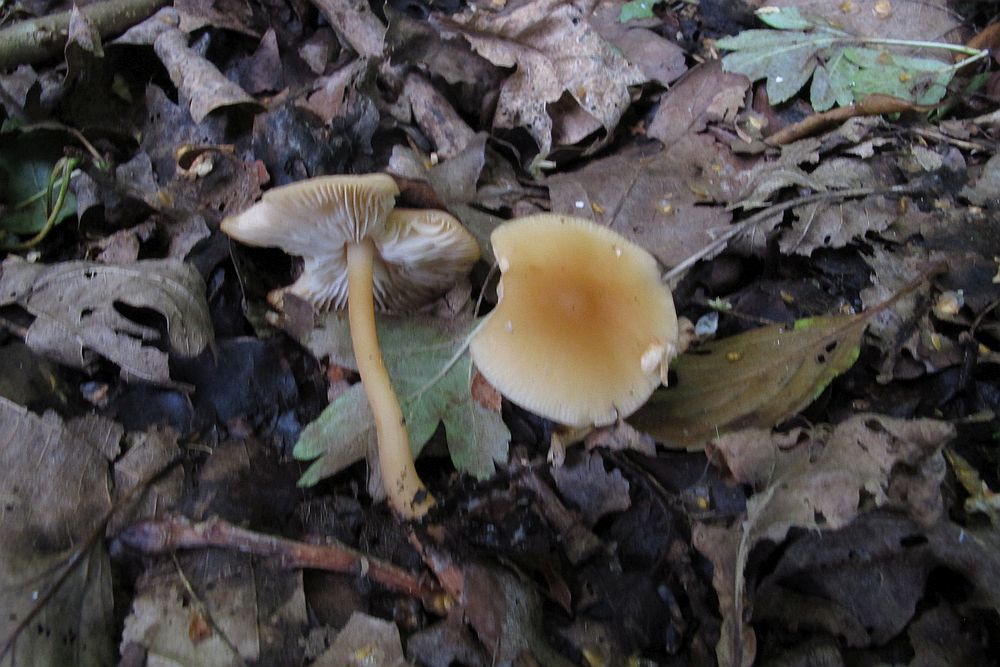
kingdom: Fungi
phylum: Basidiomycota
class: Agaricomycetes
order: Agaricales
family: Omphalotaceae
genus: Gymnopus
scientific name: Gymnopus aquosus
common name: bleg fladhat
